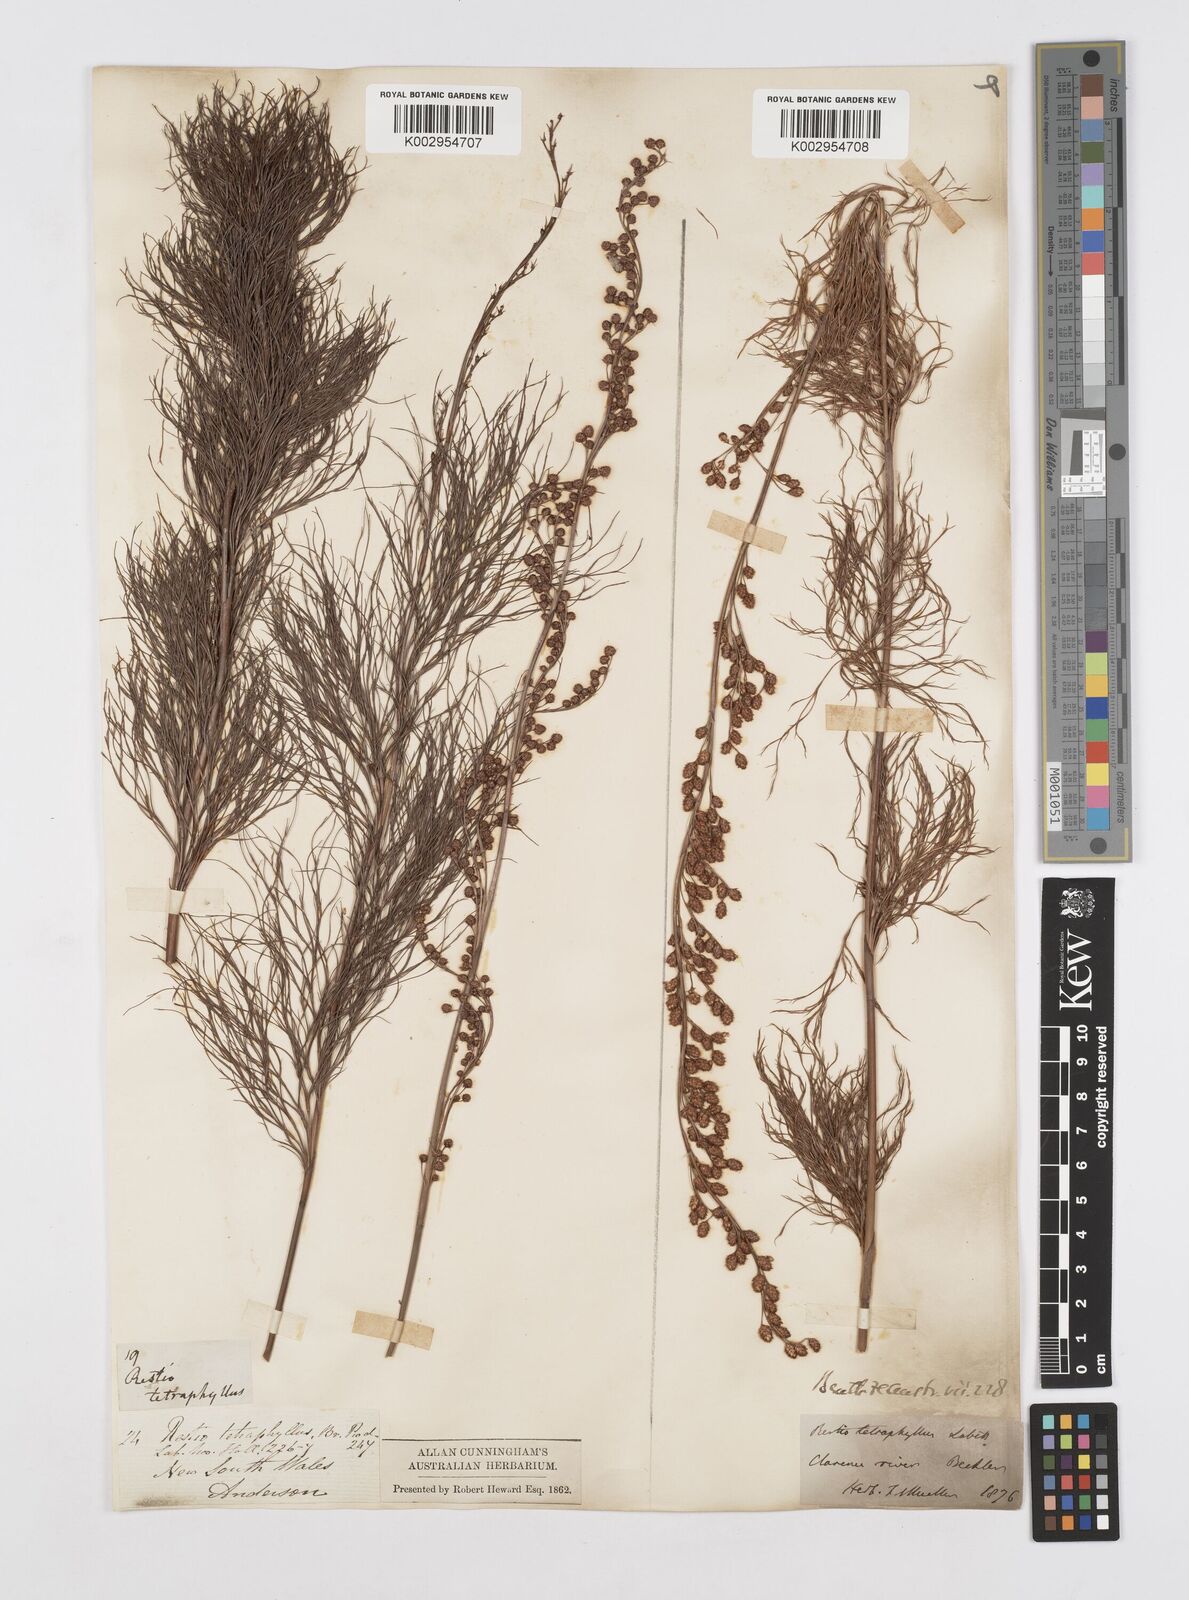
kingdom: Plantae
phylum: Tracheophyta
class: Liliopsida
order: Poales
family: Restionaceae
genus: Baloskion
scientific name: Baloskion tetraphyllum
